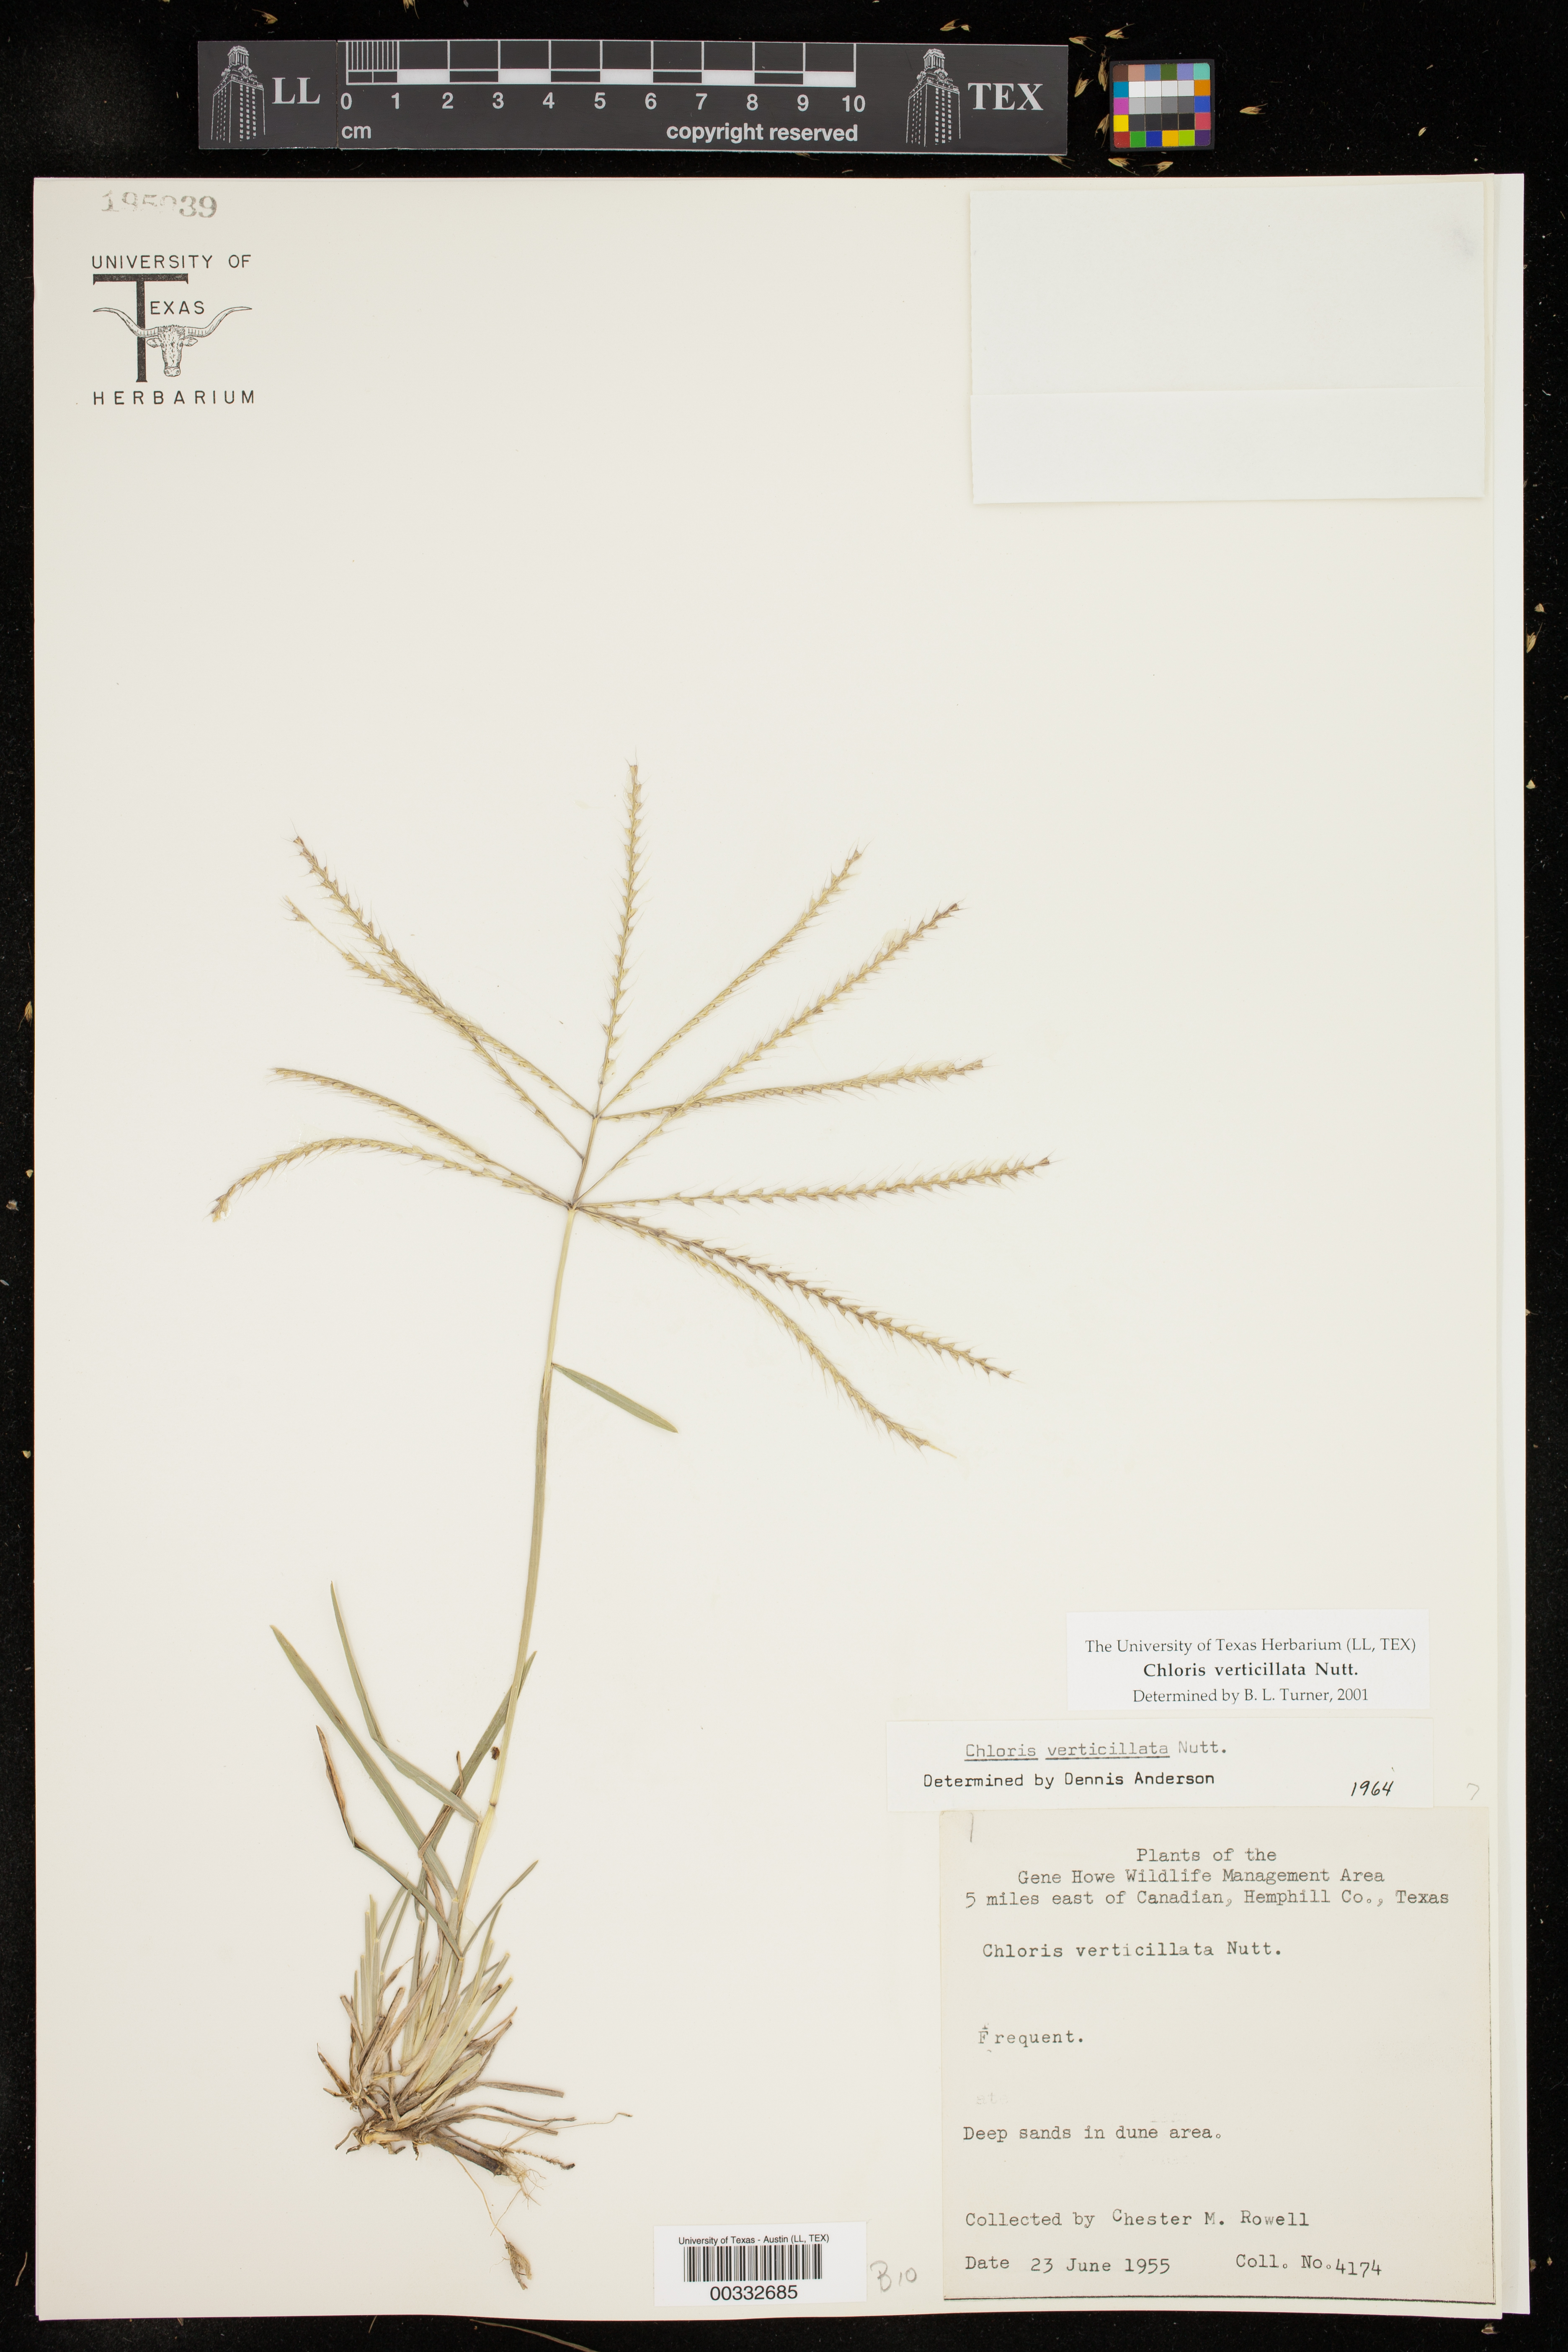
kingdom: Plantae
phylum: Tracheophyta
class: Liliopsida
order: Poales
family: Poaceae
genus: Chloris
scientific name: Chloris verticillata
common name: Tumble windmill grass
